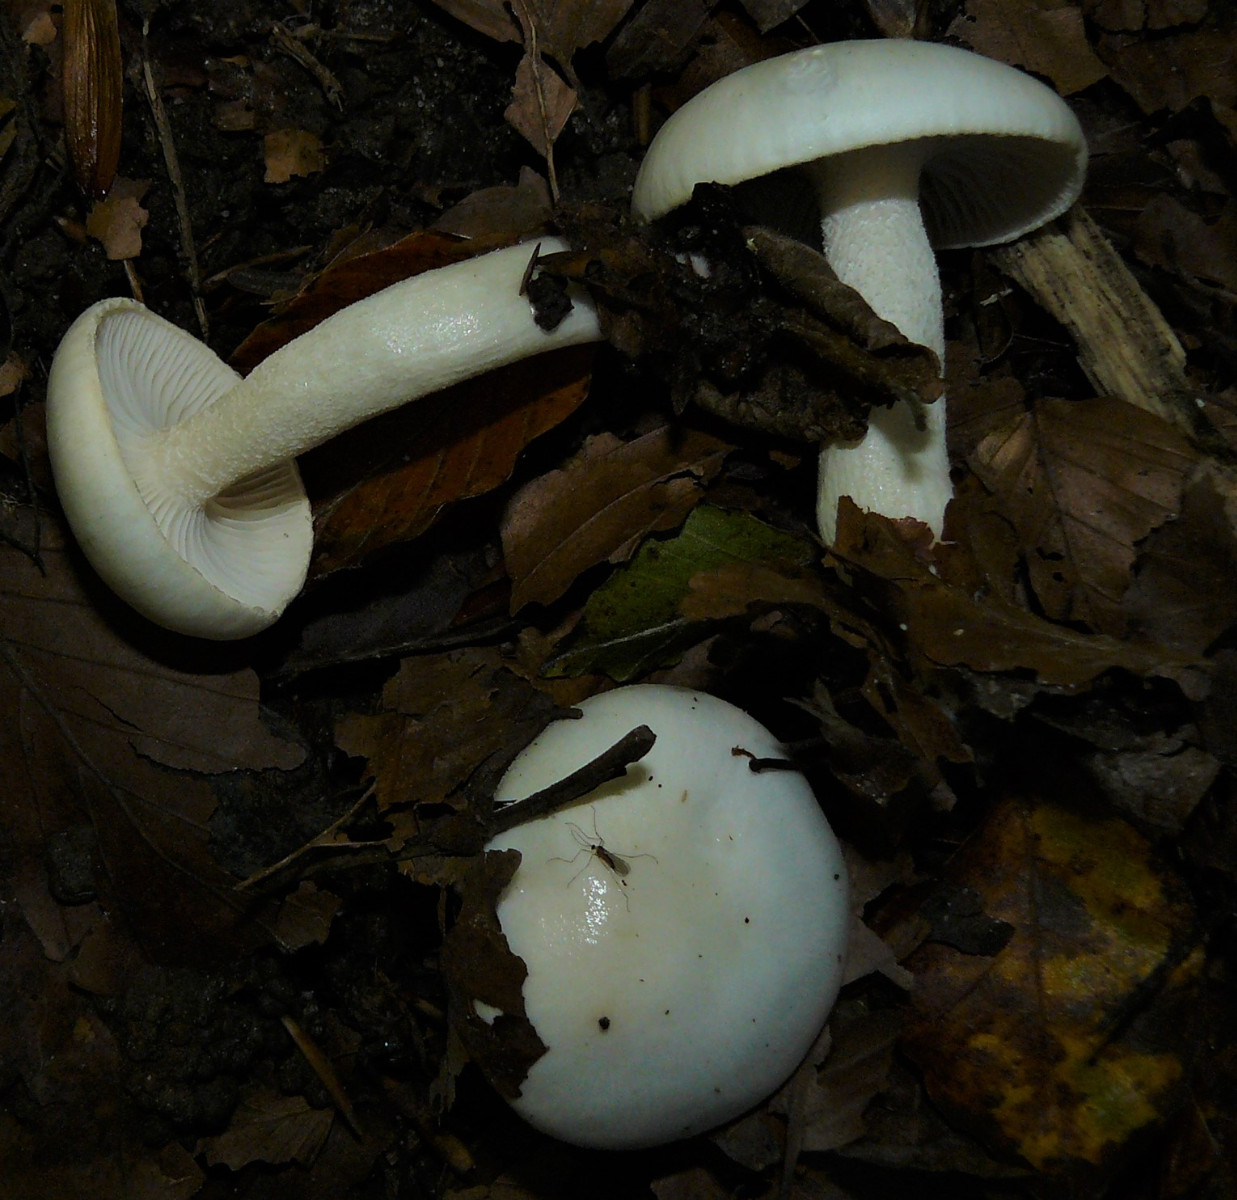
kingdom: Fungi
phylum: Basidiomycota
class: Agaricomycetes
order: Agaricales
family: Hygrophoraceae
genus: Hygrophorus
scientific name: Hygrophorus eburneus
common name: elfenbens-sneglehat
